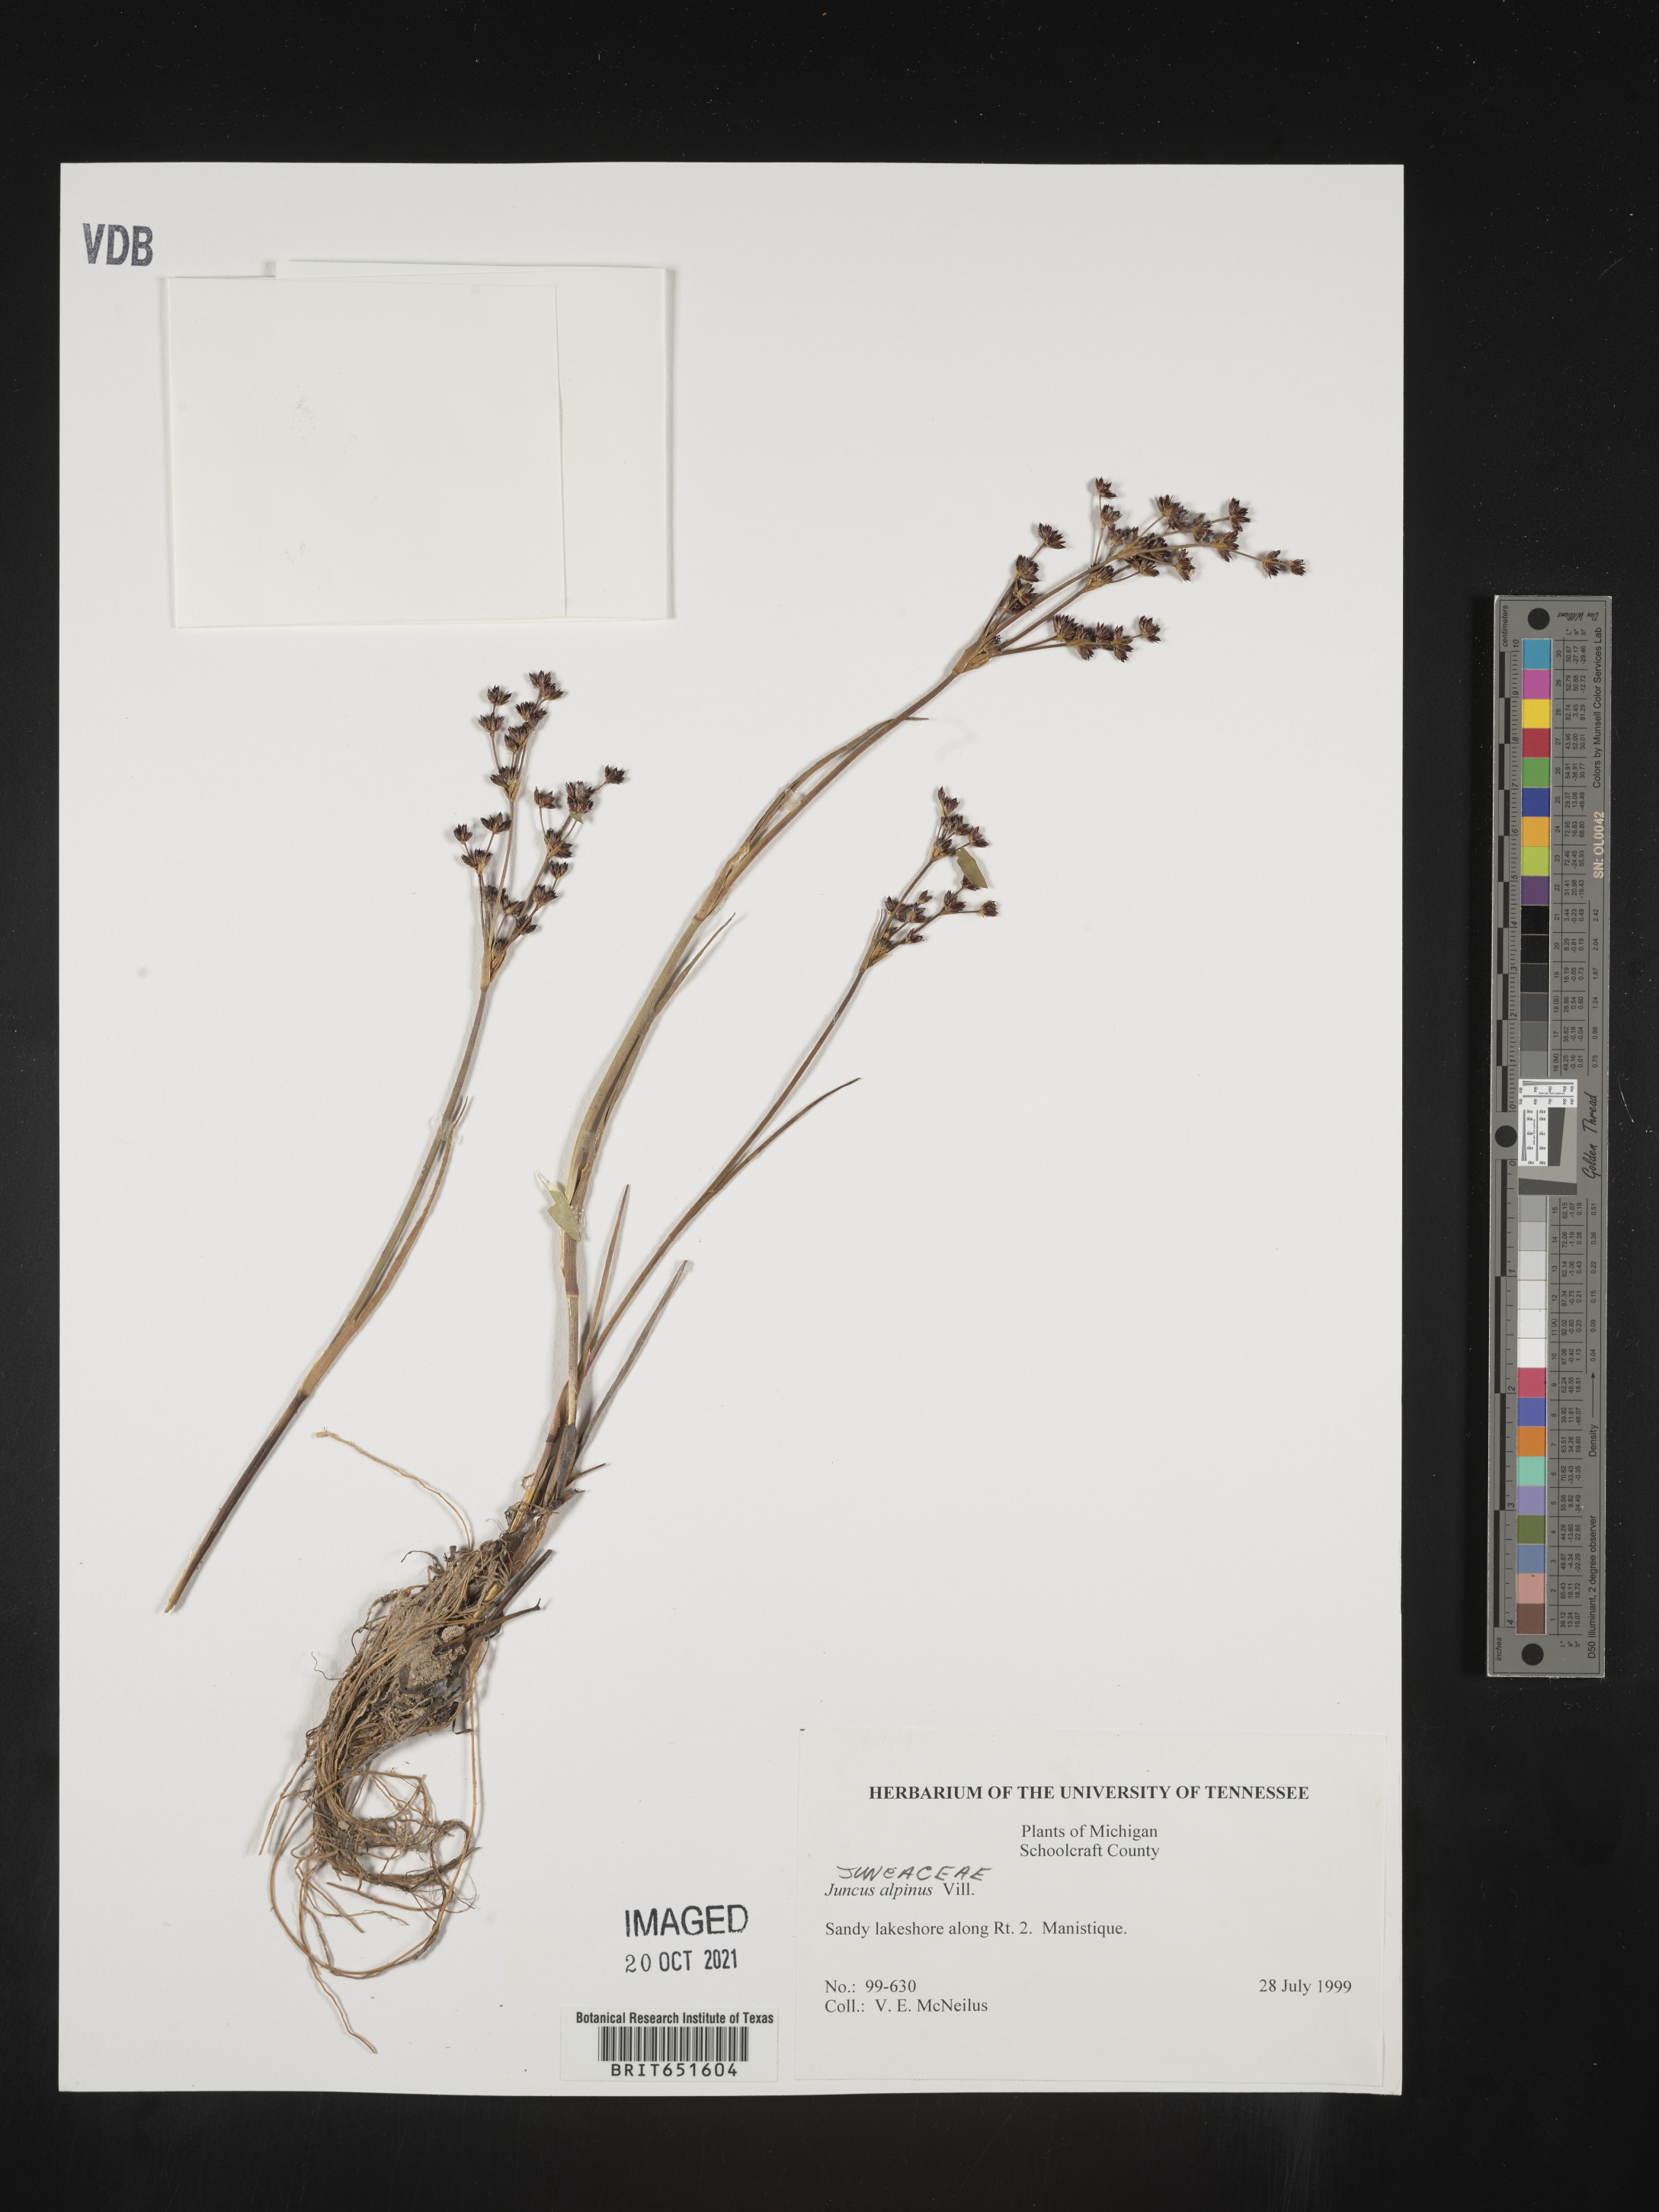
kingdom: Plantae
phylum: Tracheophyta
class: Liliopsida
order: Poales
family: Juncaceae
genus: Juncus
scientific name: Juncus alpinoarticulatus
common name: Alpine rush
